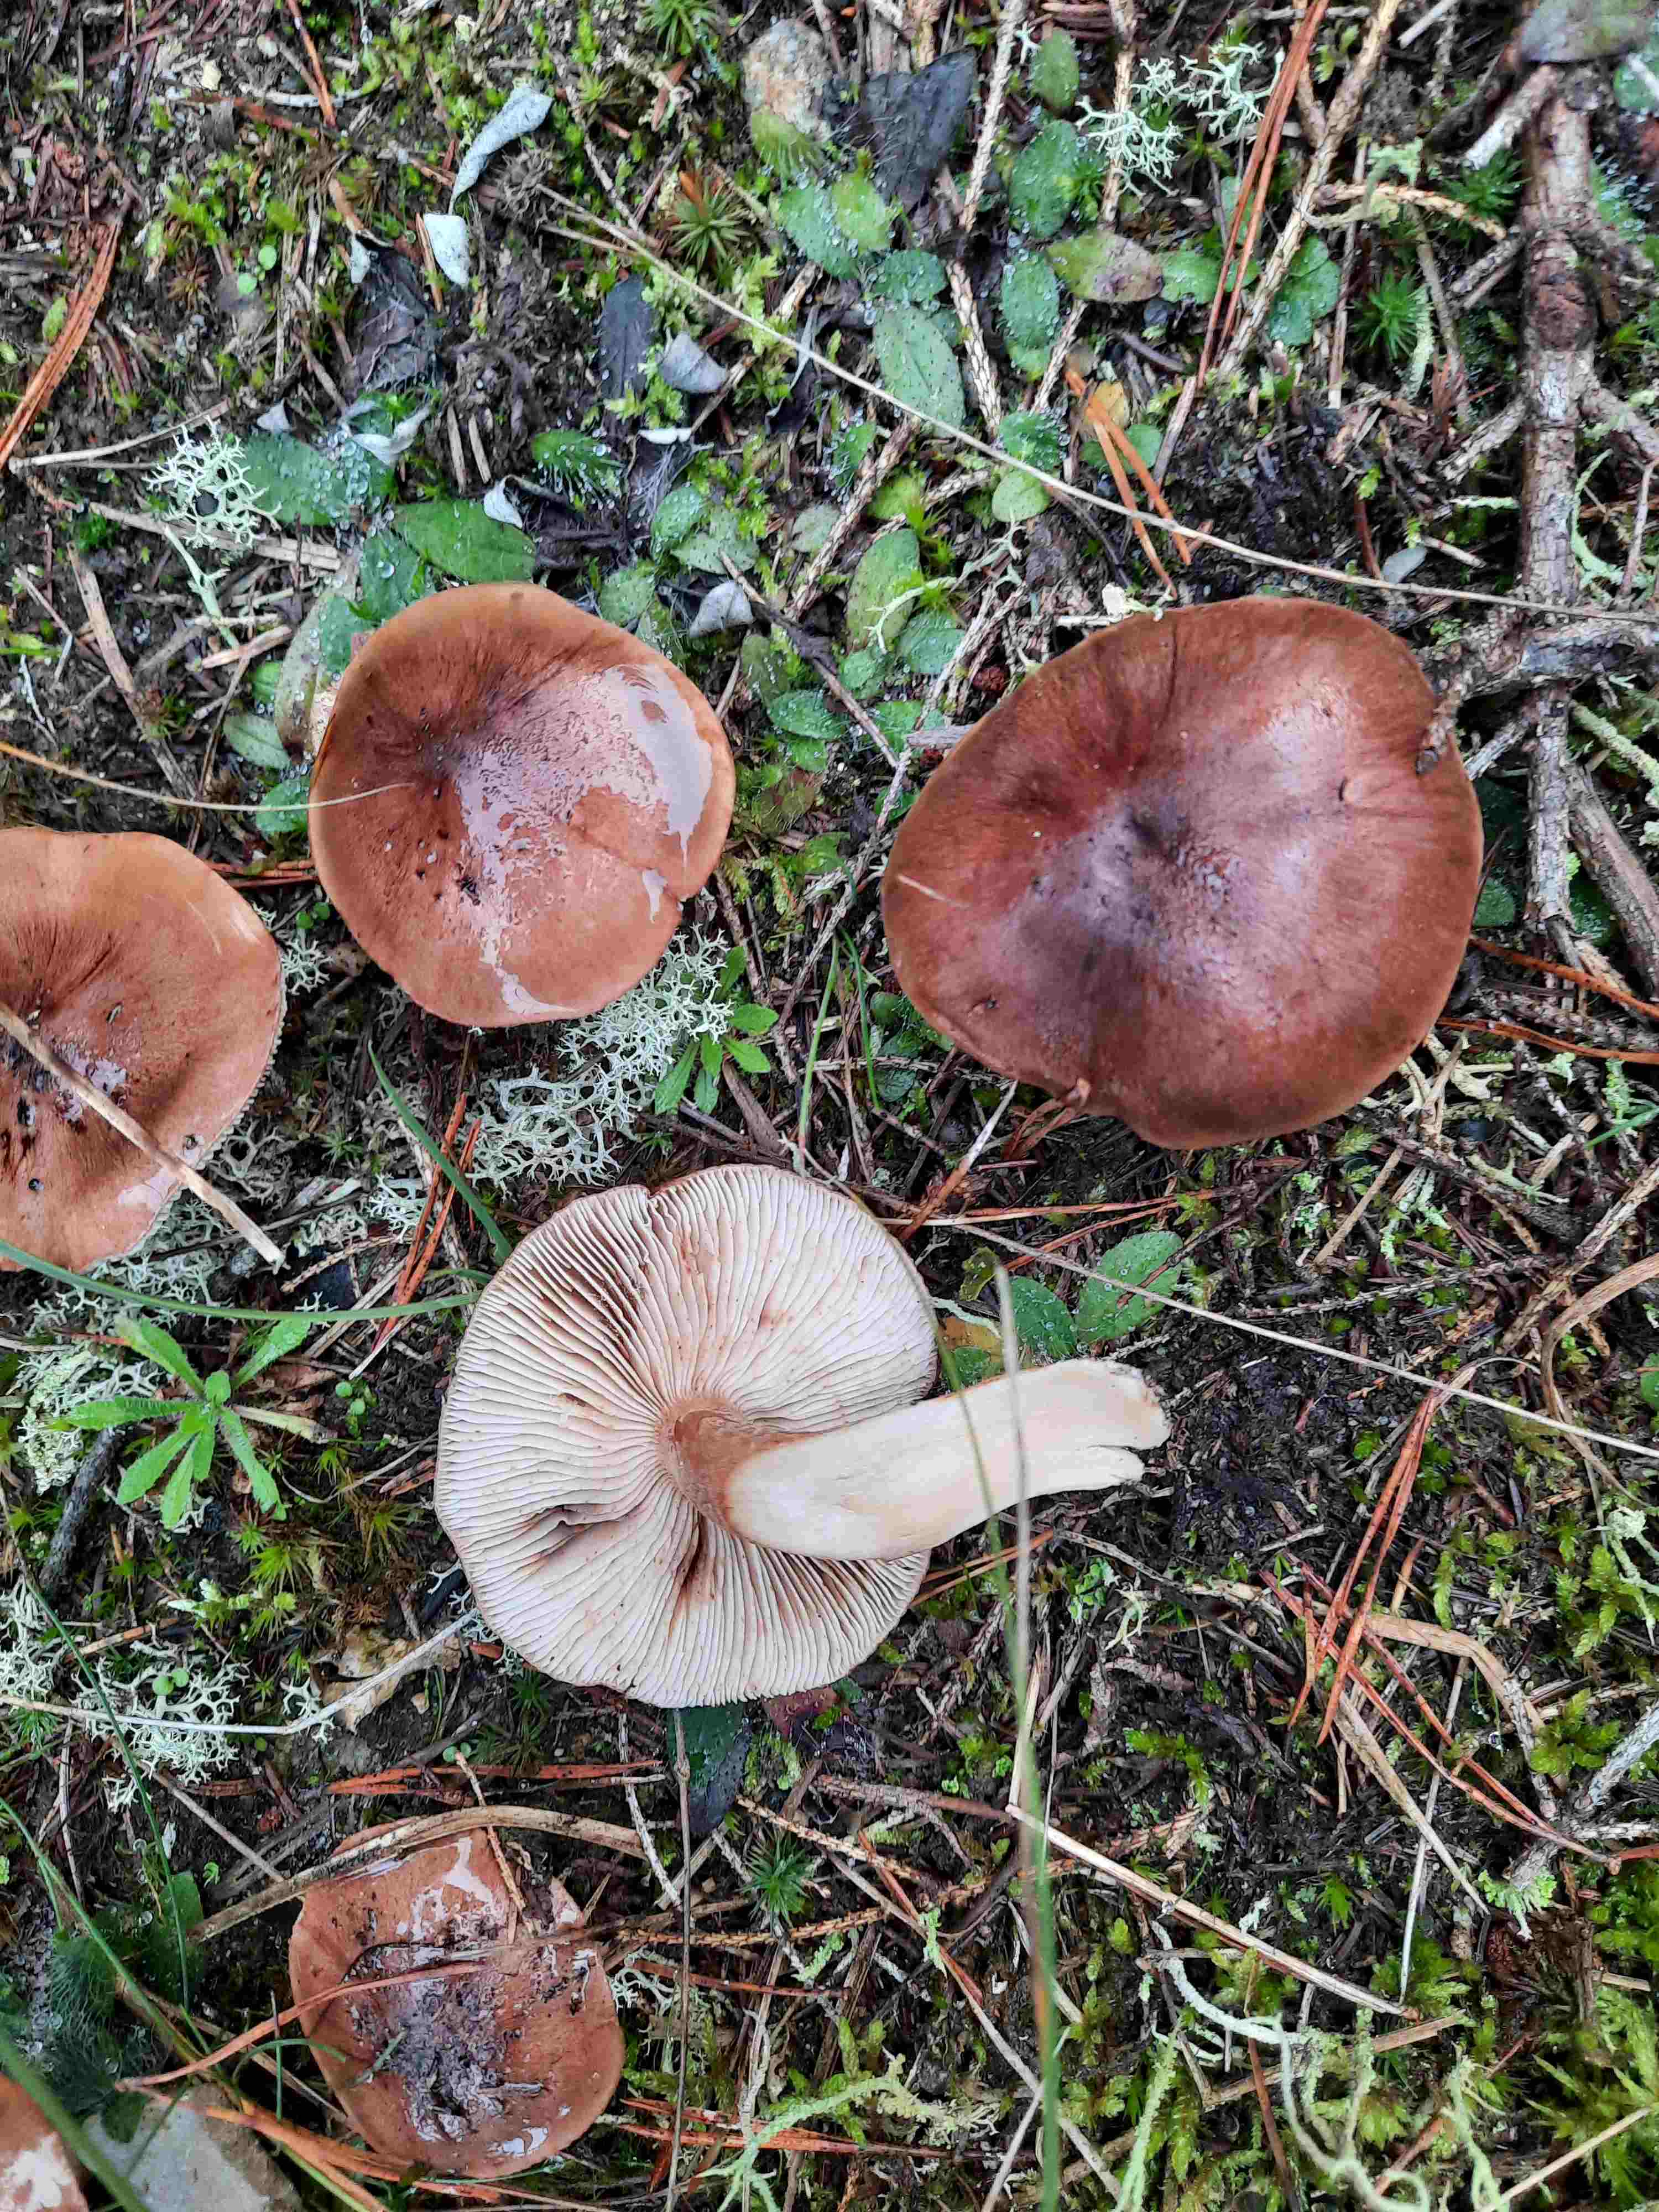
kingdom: Fungi
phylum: Basidiomycota
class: Agaricomycetes
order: Agaricales
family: Tricholomataceae
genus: Tricholoma
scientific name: Tricholoma fulvum
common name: birke-ridderhat
